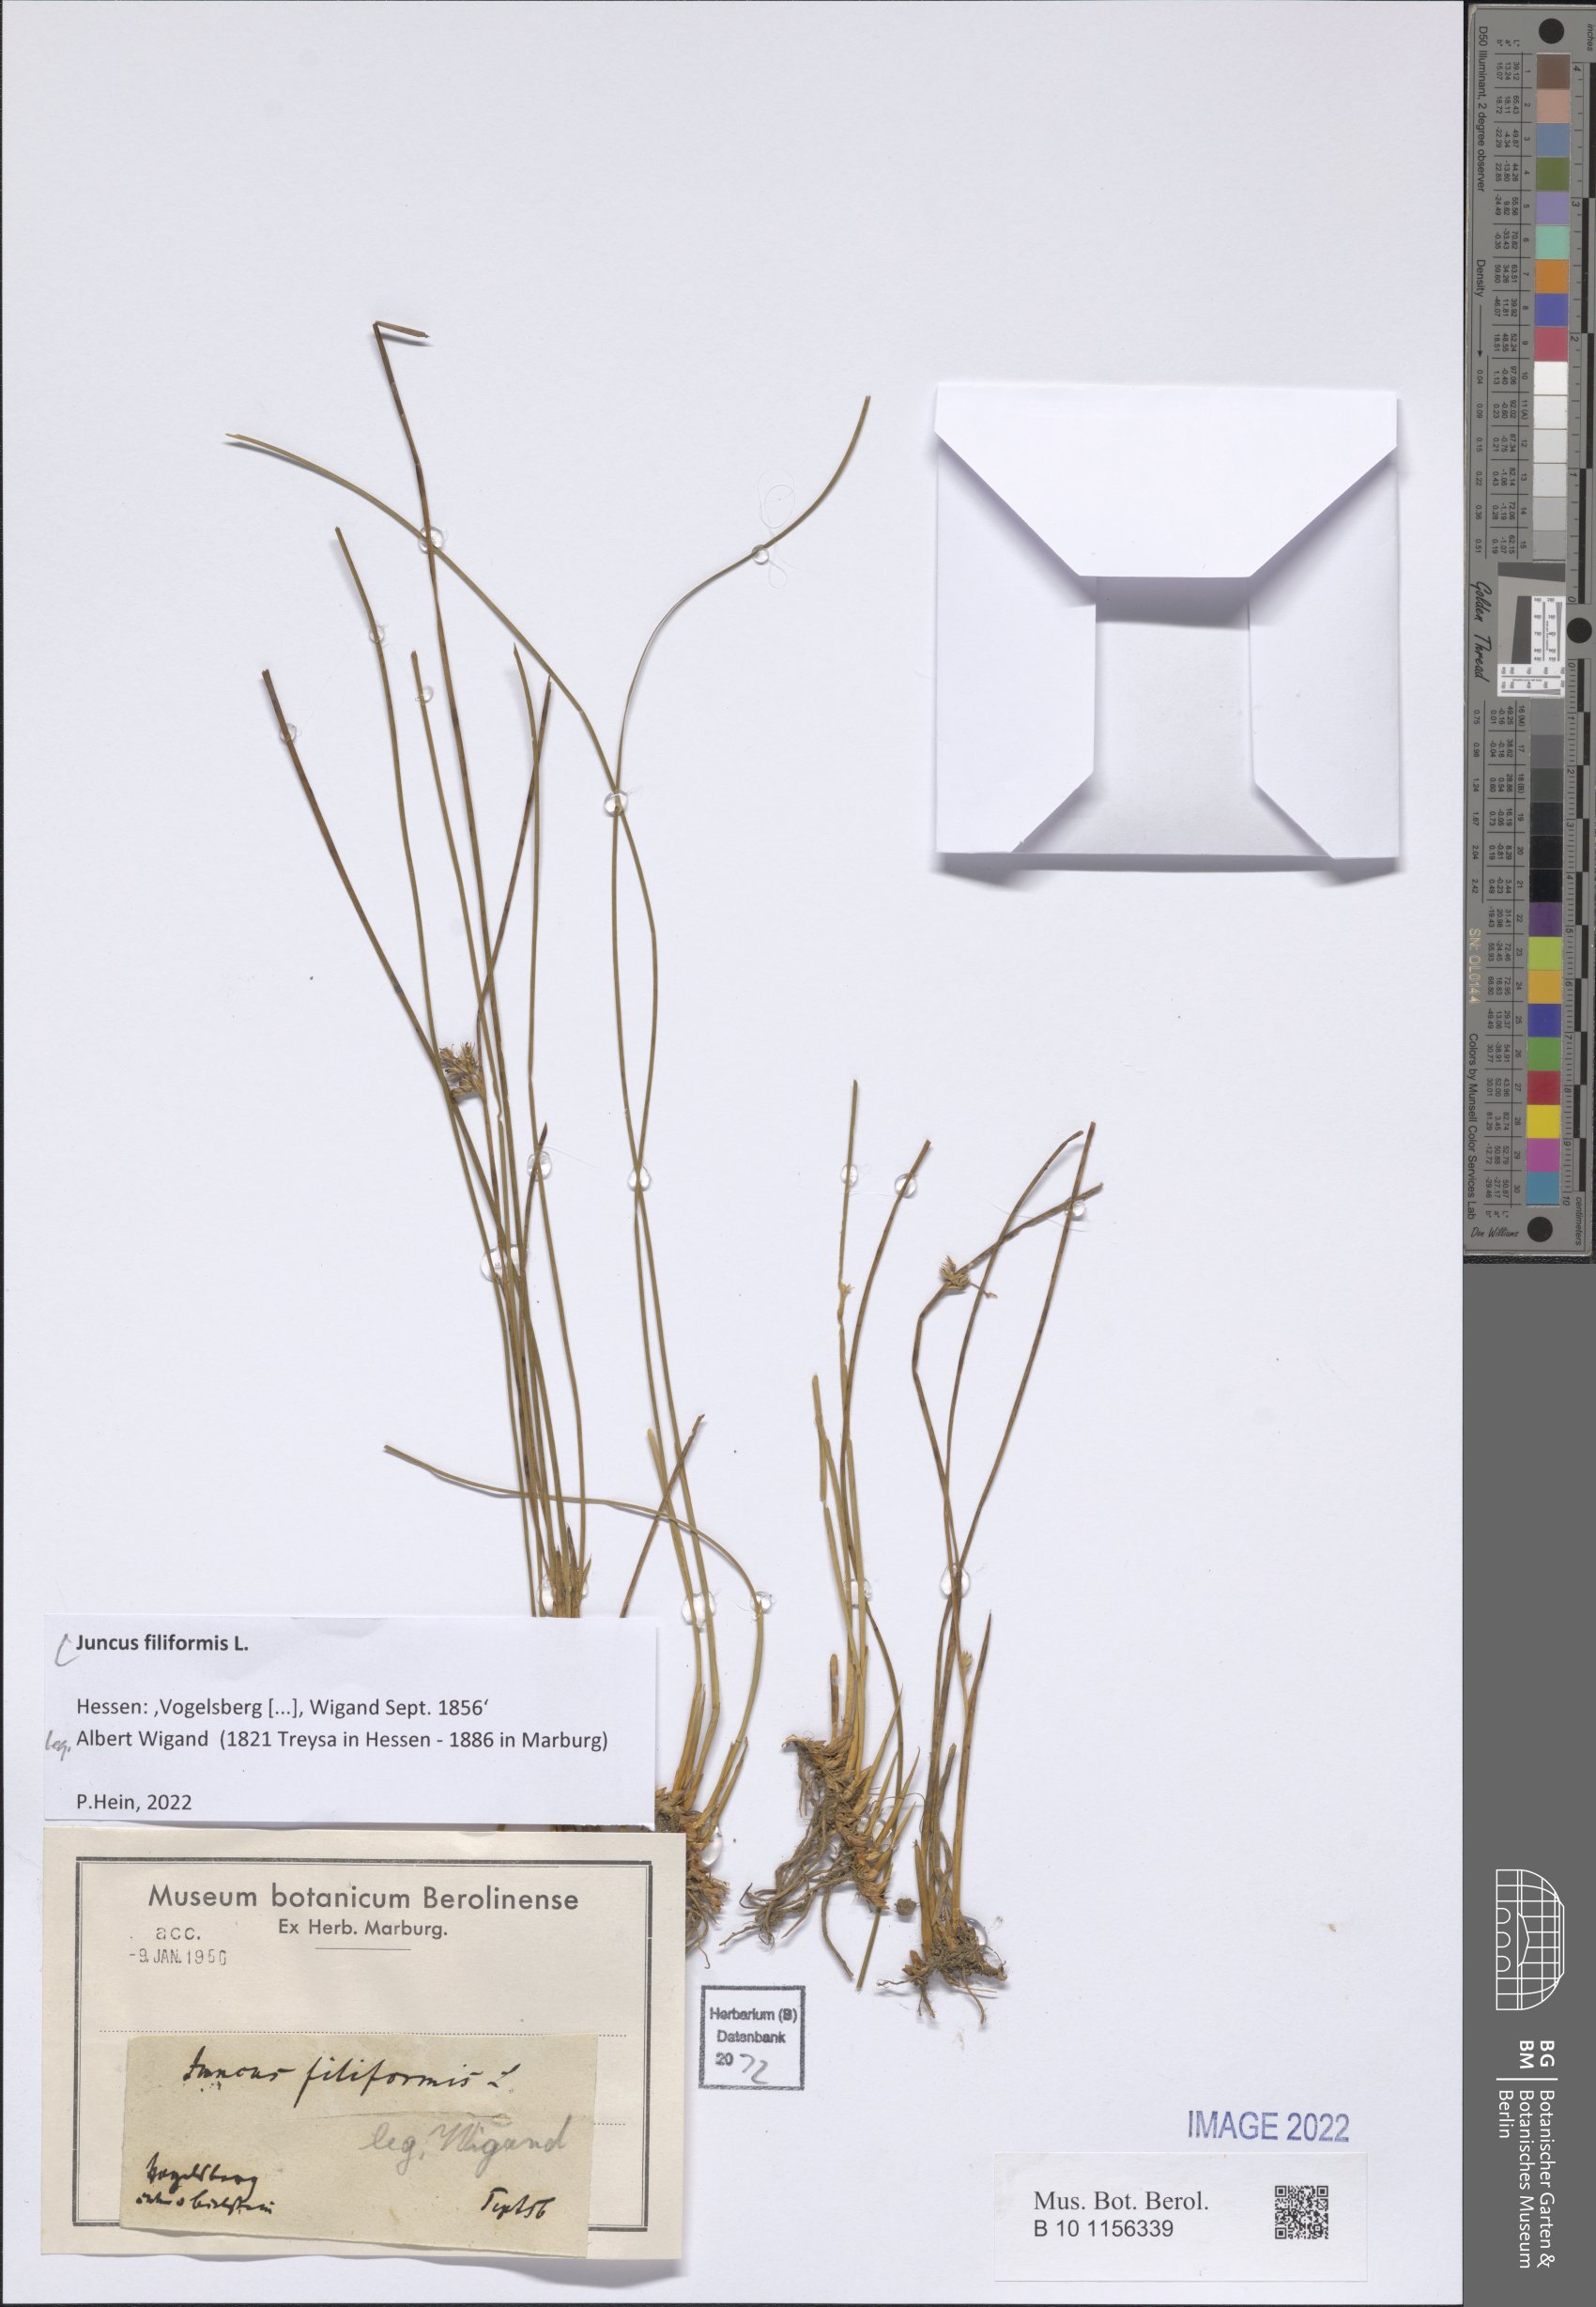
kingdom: Plantae
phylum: Tracheophyta
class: Liliopsida
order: Poales
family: Juncaceae
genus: Juncus
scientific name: Juncus filiformis
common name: Thread rush
